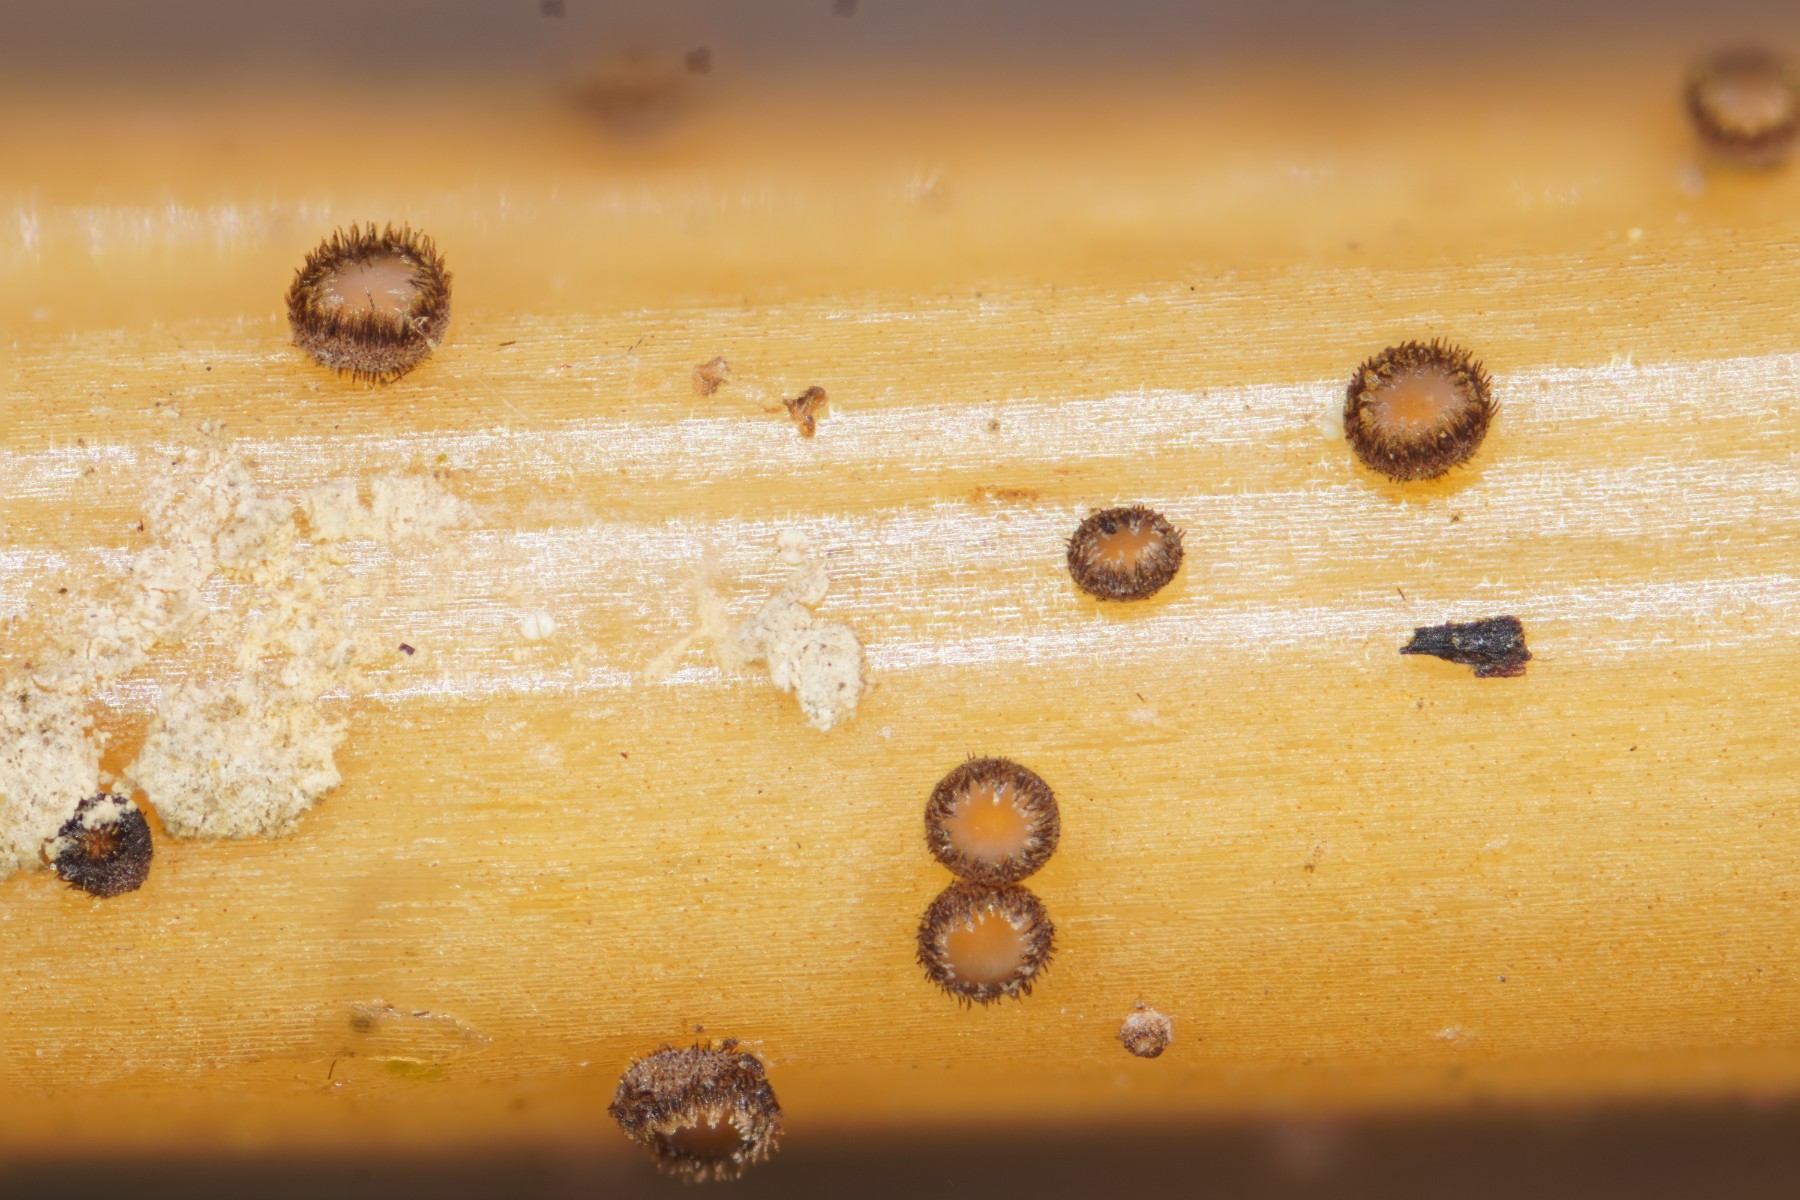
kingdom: Fungi
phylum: Ascomycota
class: Leotiomycetes
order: Helotiales
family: Solenopeziaceae
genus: Lasiobelonium
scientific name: Lasiobelonium nidulus
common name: rede-frynseskive
